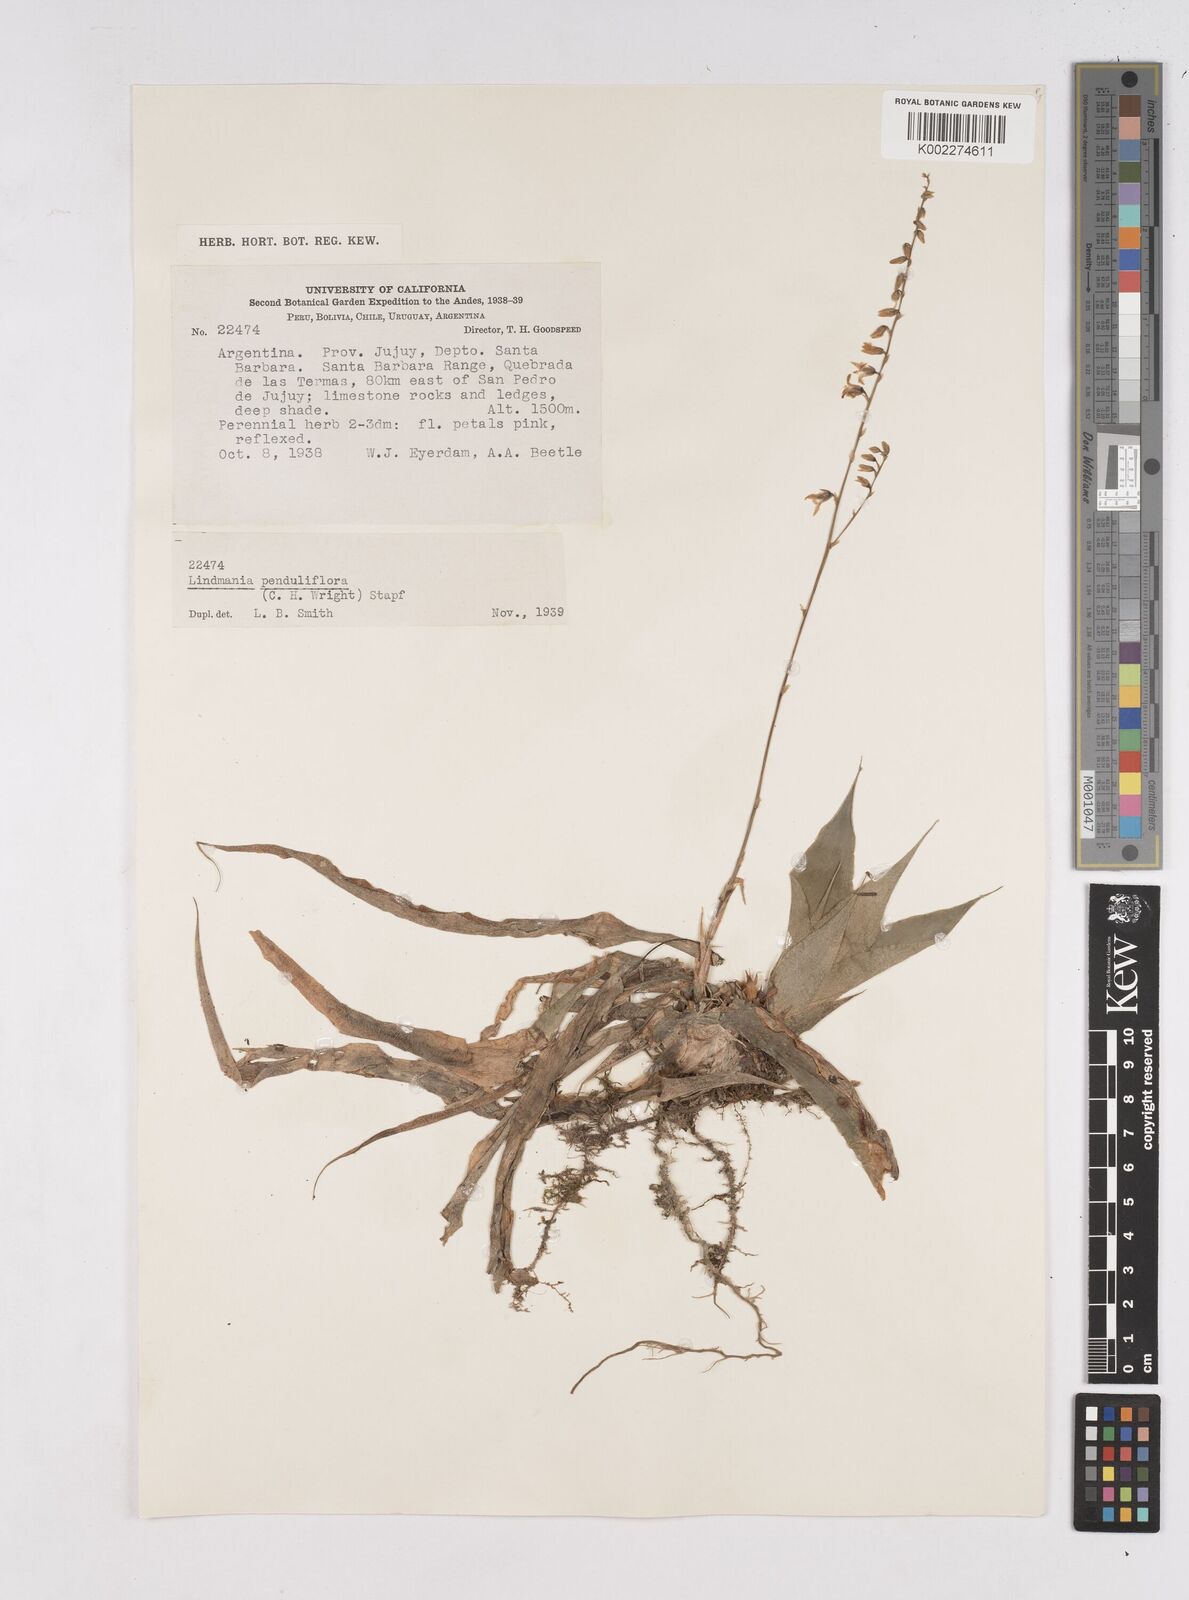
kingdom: Plantae
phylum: Tracheophyta
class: Liliopsida
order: Poales
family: Bromeliaceae
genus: Fosterella
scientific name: Fosterella penduliflora
